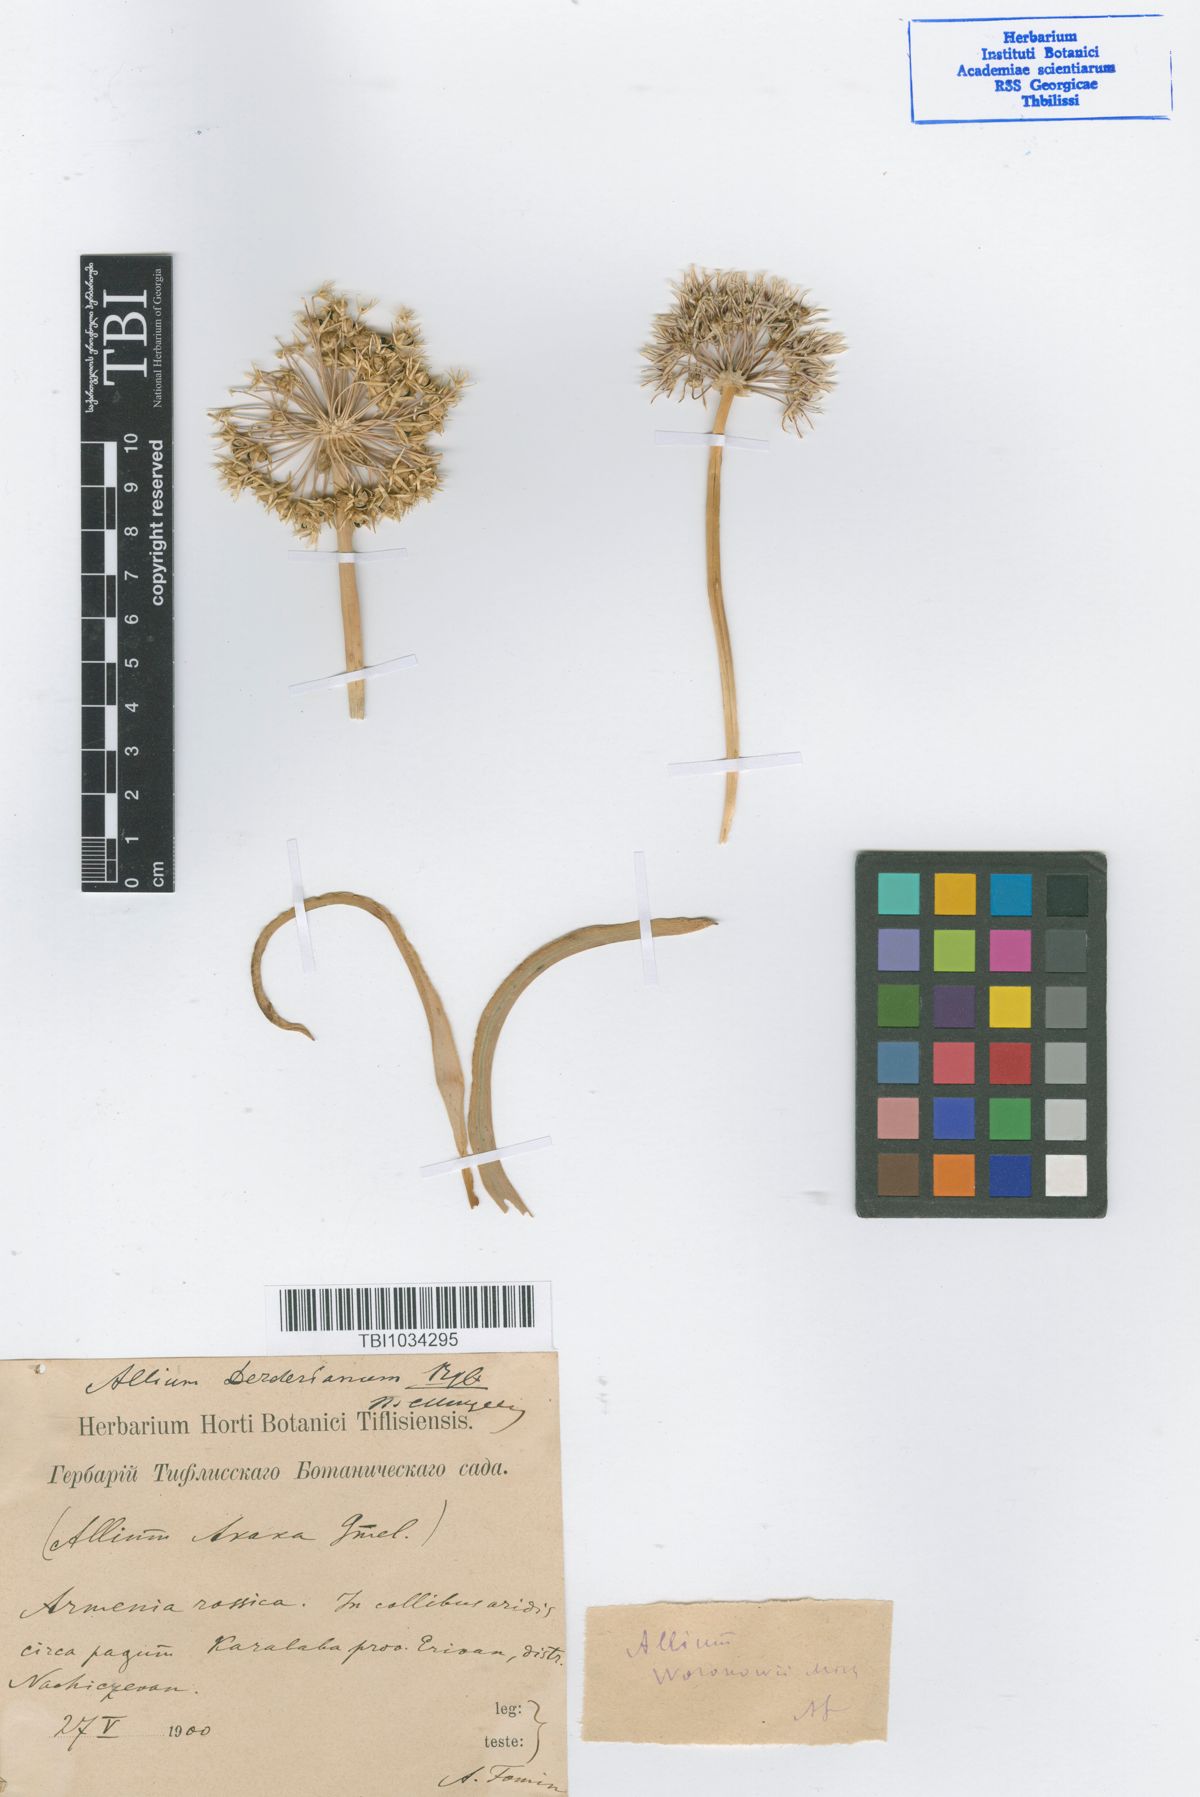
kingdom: Plantae
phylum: Tracheophyta
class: Liliopsida
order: Asparagales
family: Amaryllidaceae
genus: Allium
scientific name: Allium woronowii
